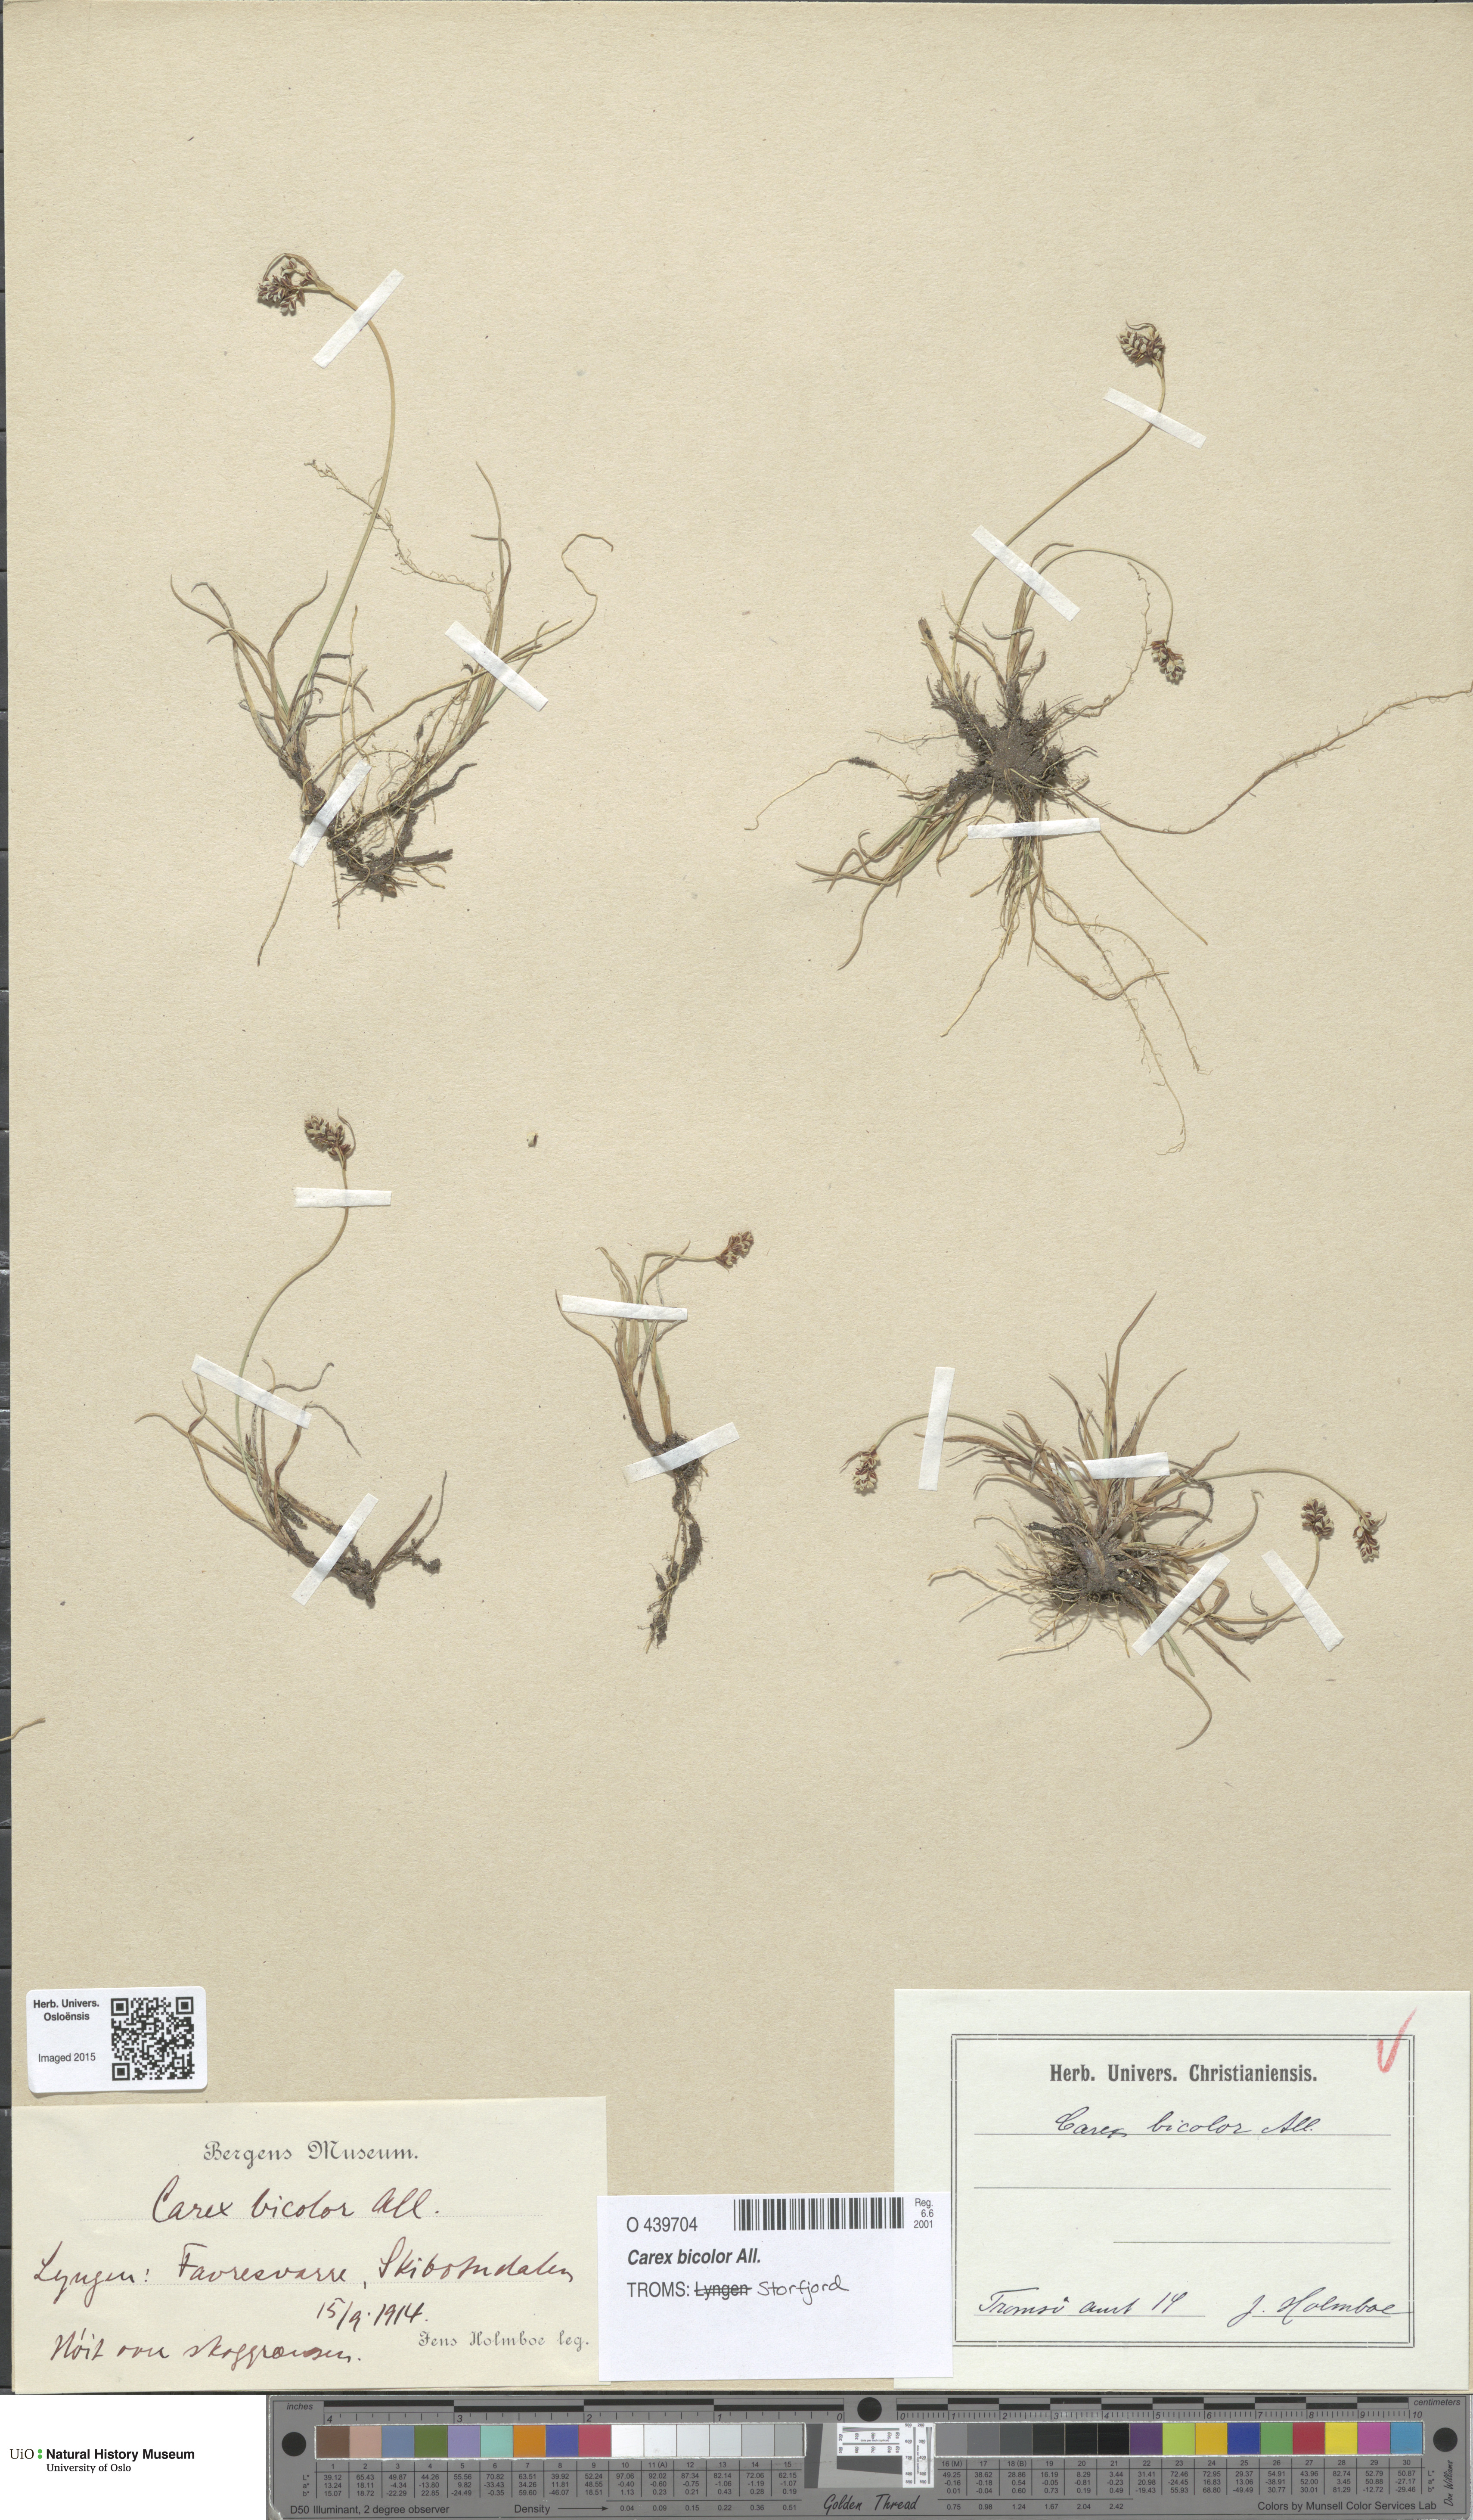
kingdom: Plantae
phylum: Tracheophyta
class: Liliopsida
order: Poales
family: Cyperaceae
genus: Carex
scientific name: Carex bicolor
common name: Bicoloured sedge
